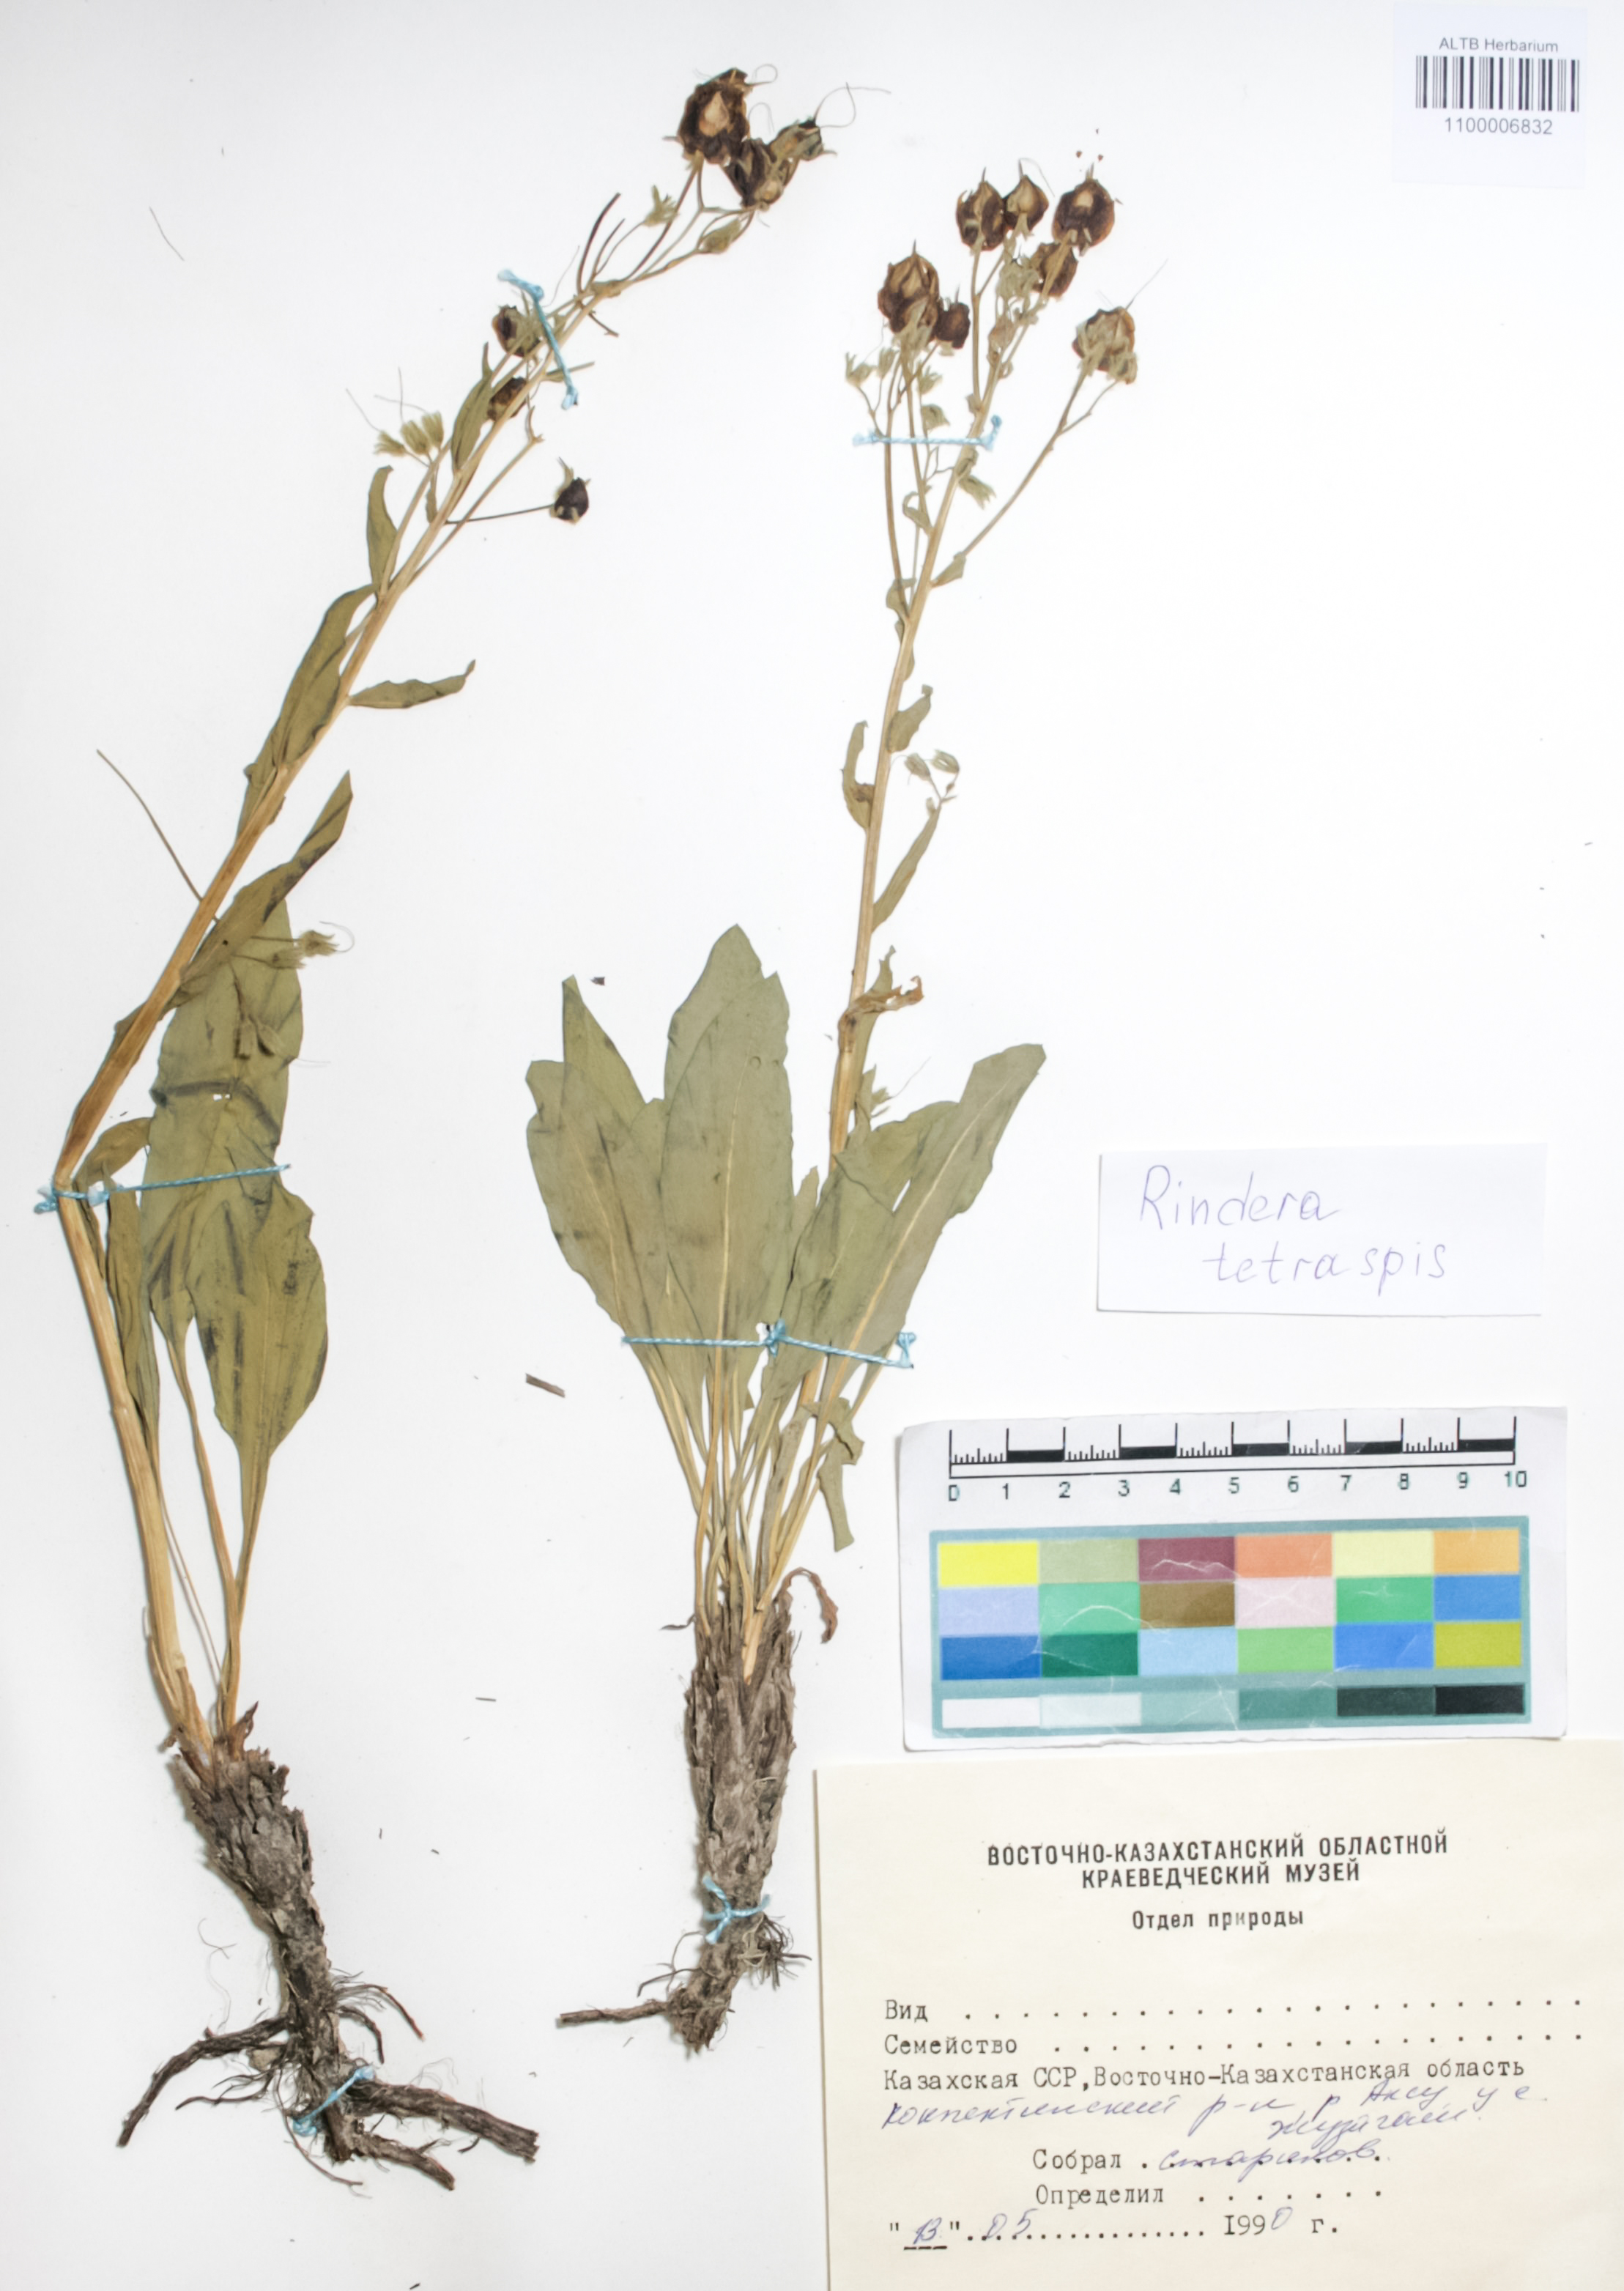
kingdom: Plantae
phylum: Tracheophyta
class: Magnoliopsida
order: Boraginales
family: Boraginaceae
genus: Rindera
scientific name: Rindera tetraspis
